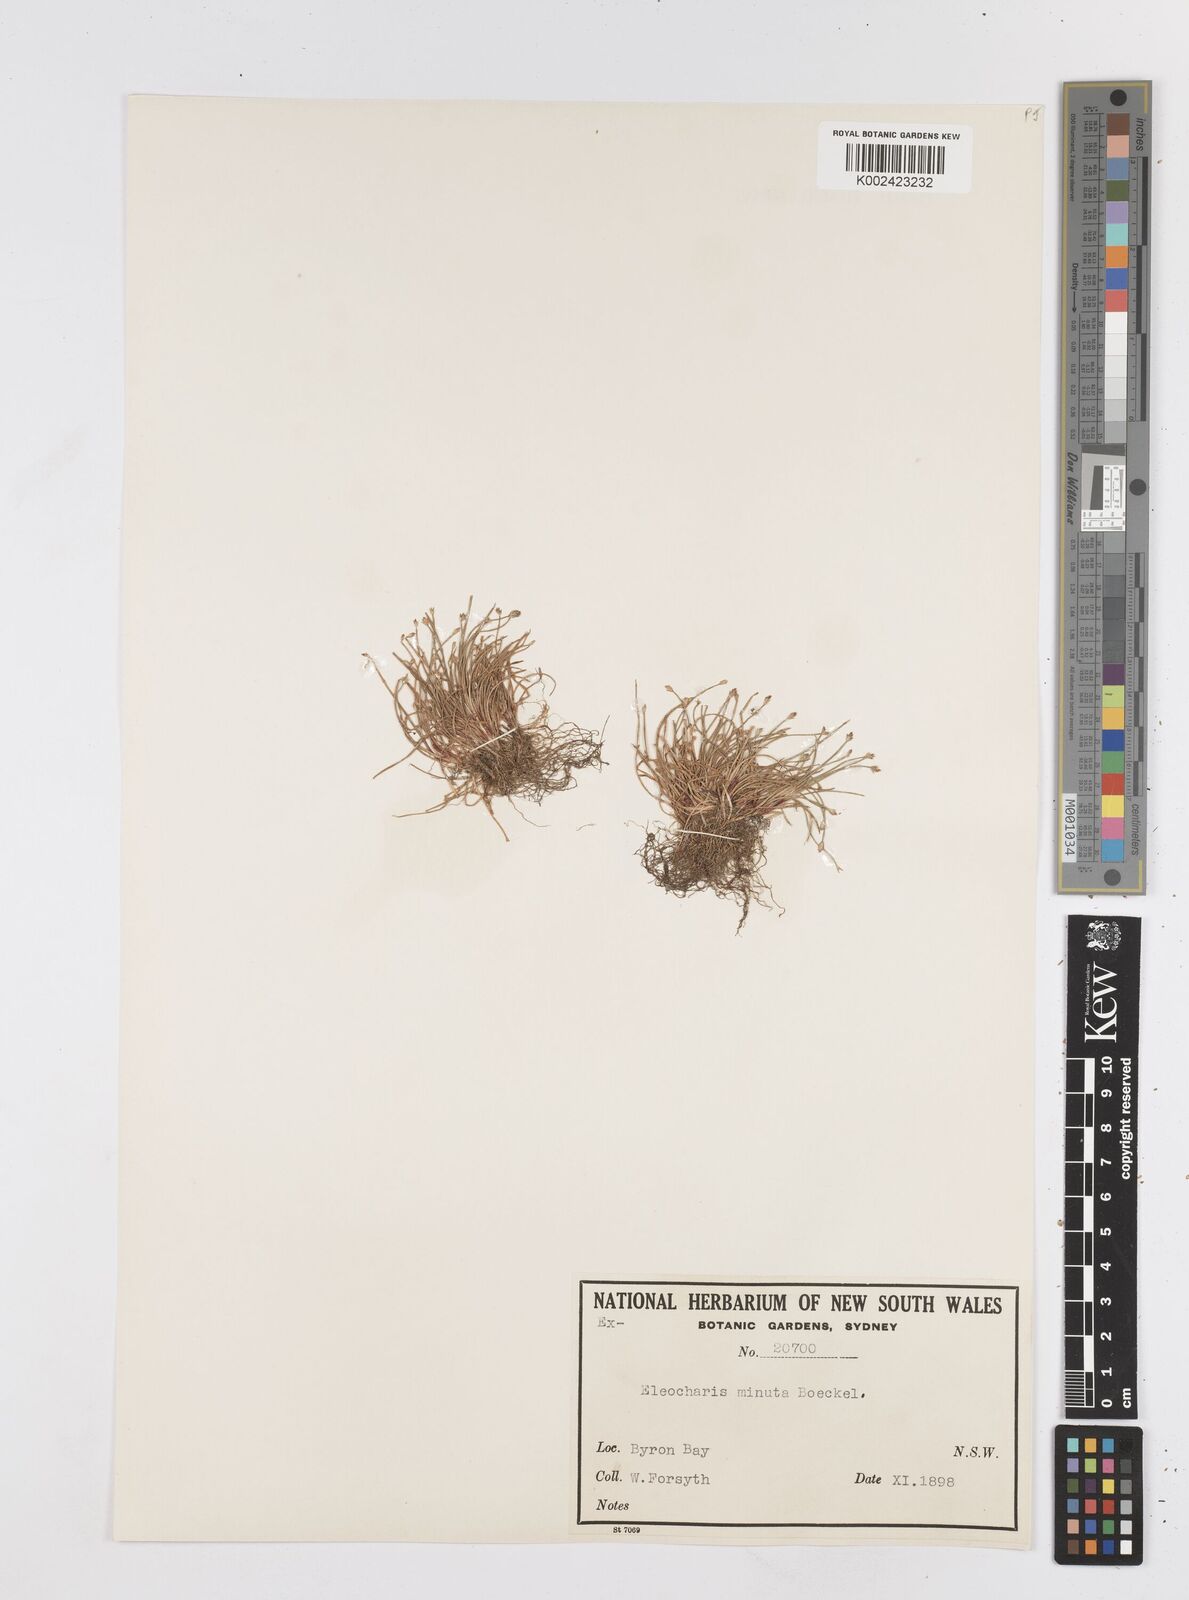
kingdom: Plantae
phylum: Tracheophyta
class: Liliopsida
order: Poales
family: Cyperaceae
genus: Eleocharis
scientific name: Eleocharis minuta
